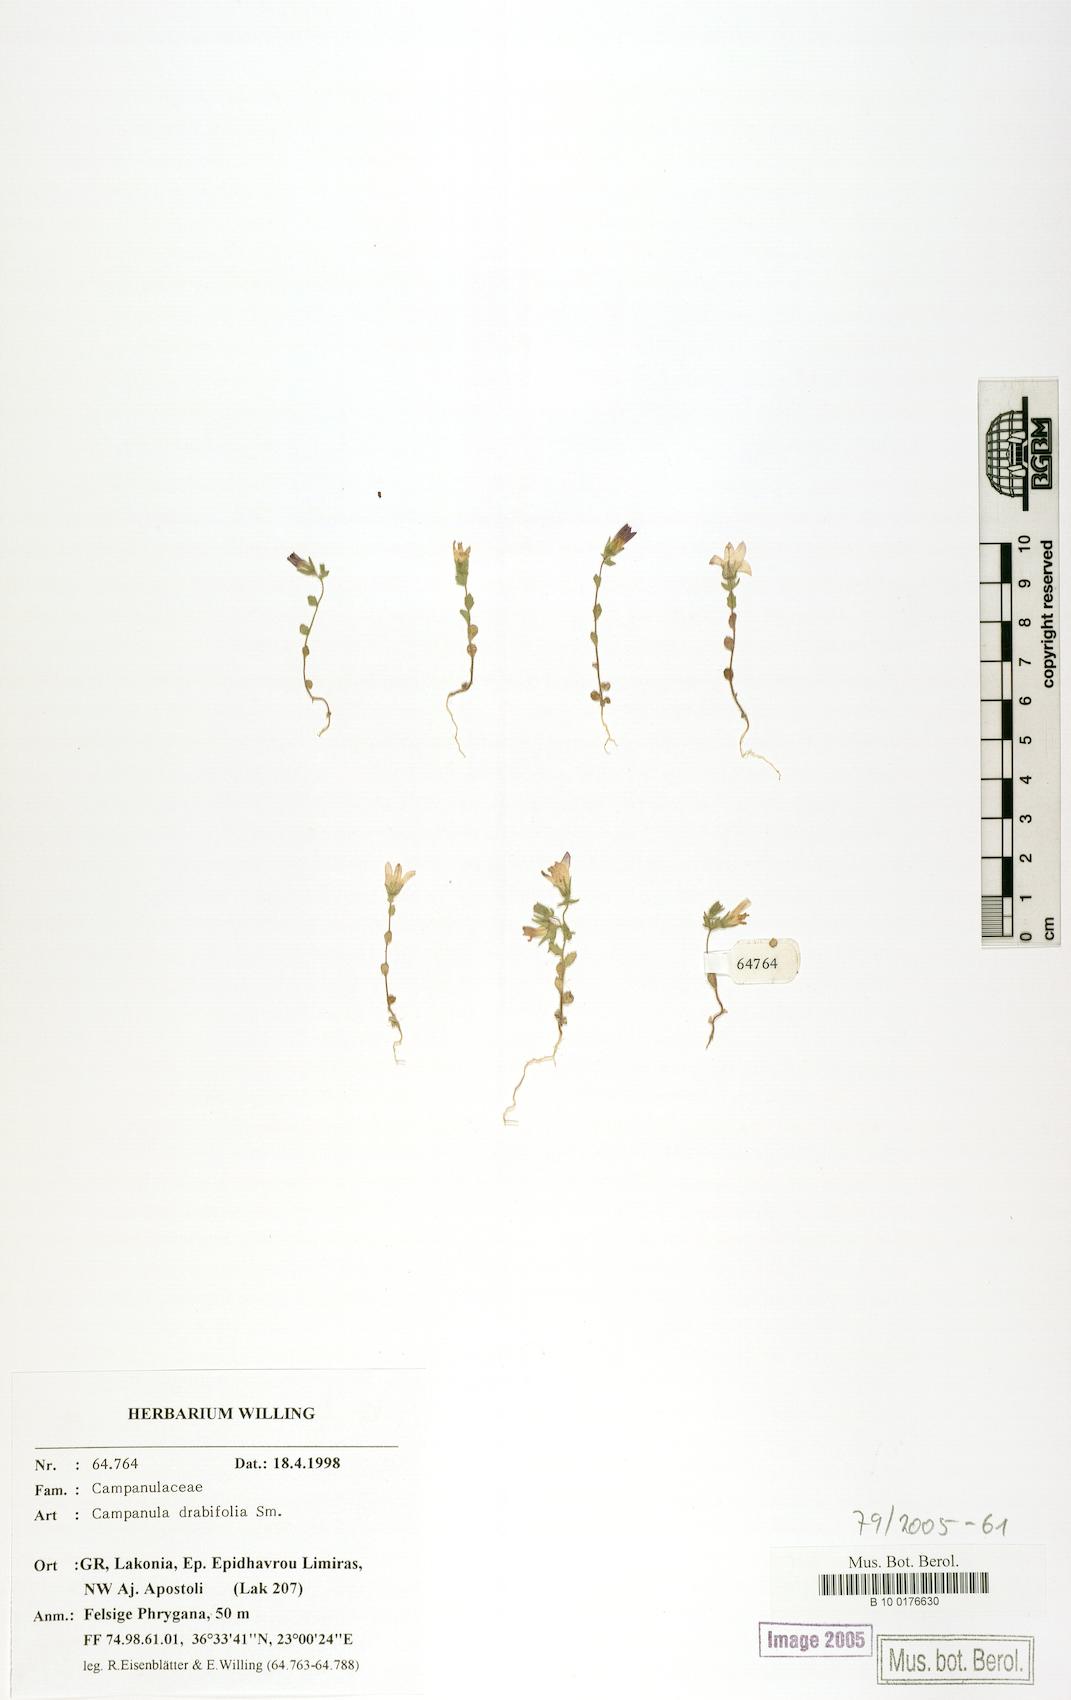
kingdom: Plantae
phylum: Tracheophyta
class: Magnoliopsida
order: Asterales
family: Campanulaceae
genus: Campanula
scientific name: Campanula drabifolia
